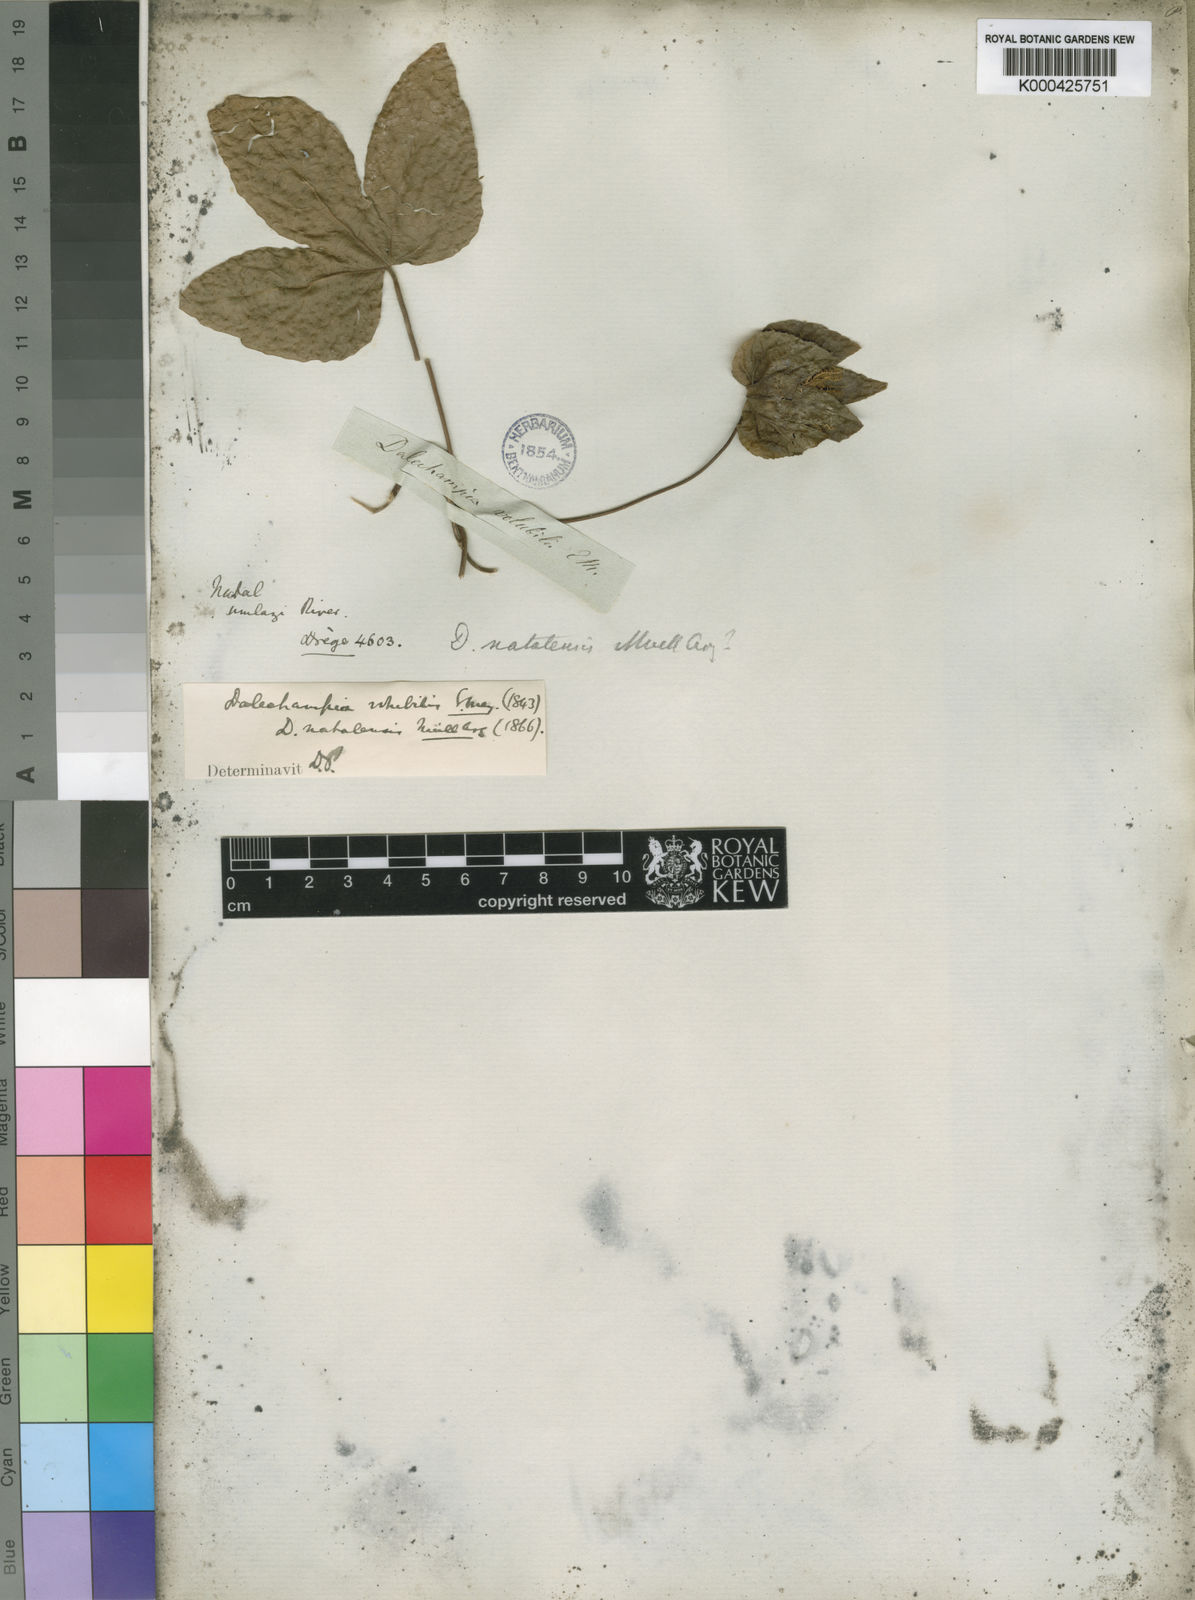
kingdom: Plantae
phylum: Tracheophyta
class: Magnoliopsida
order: Malpighiales
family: Euphorbiaceae
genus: Dalechampia
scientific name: Dalechampia capensis
